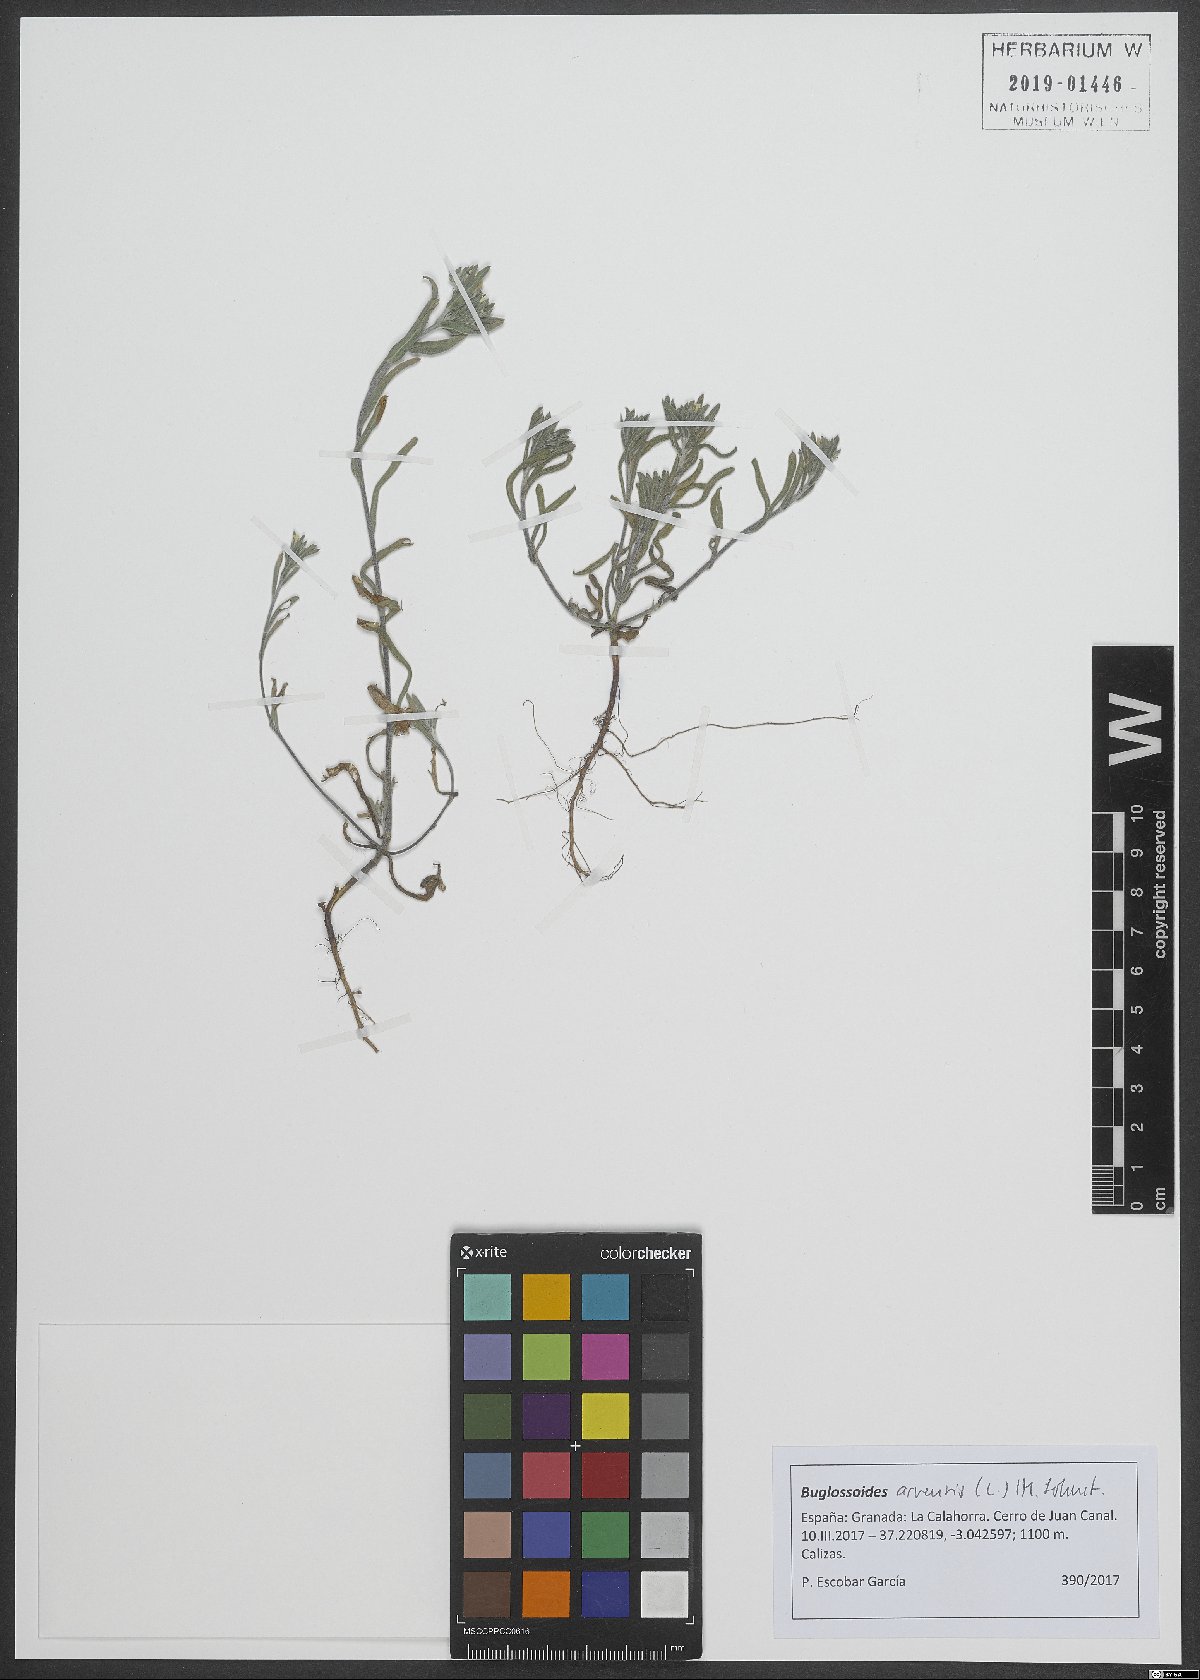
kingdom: Plantae
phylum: Tracheophyta
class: Magnoliopsida
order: Boraginales
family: Boraginaceae
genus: Buglossoides
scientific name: Buglossoides arvensis
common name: Corn gromwell
